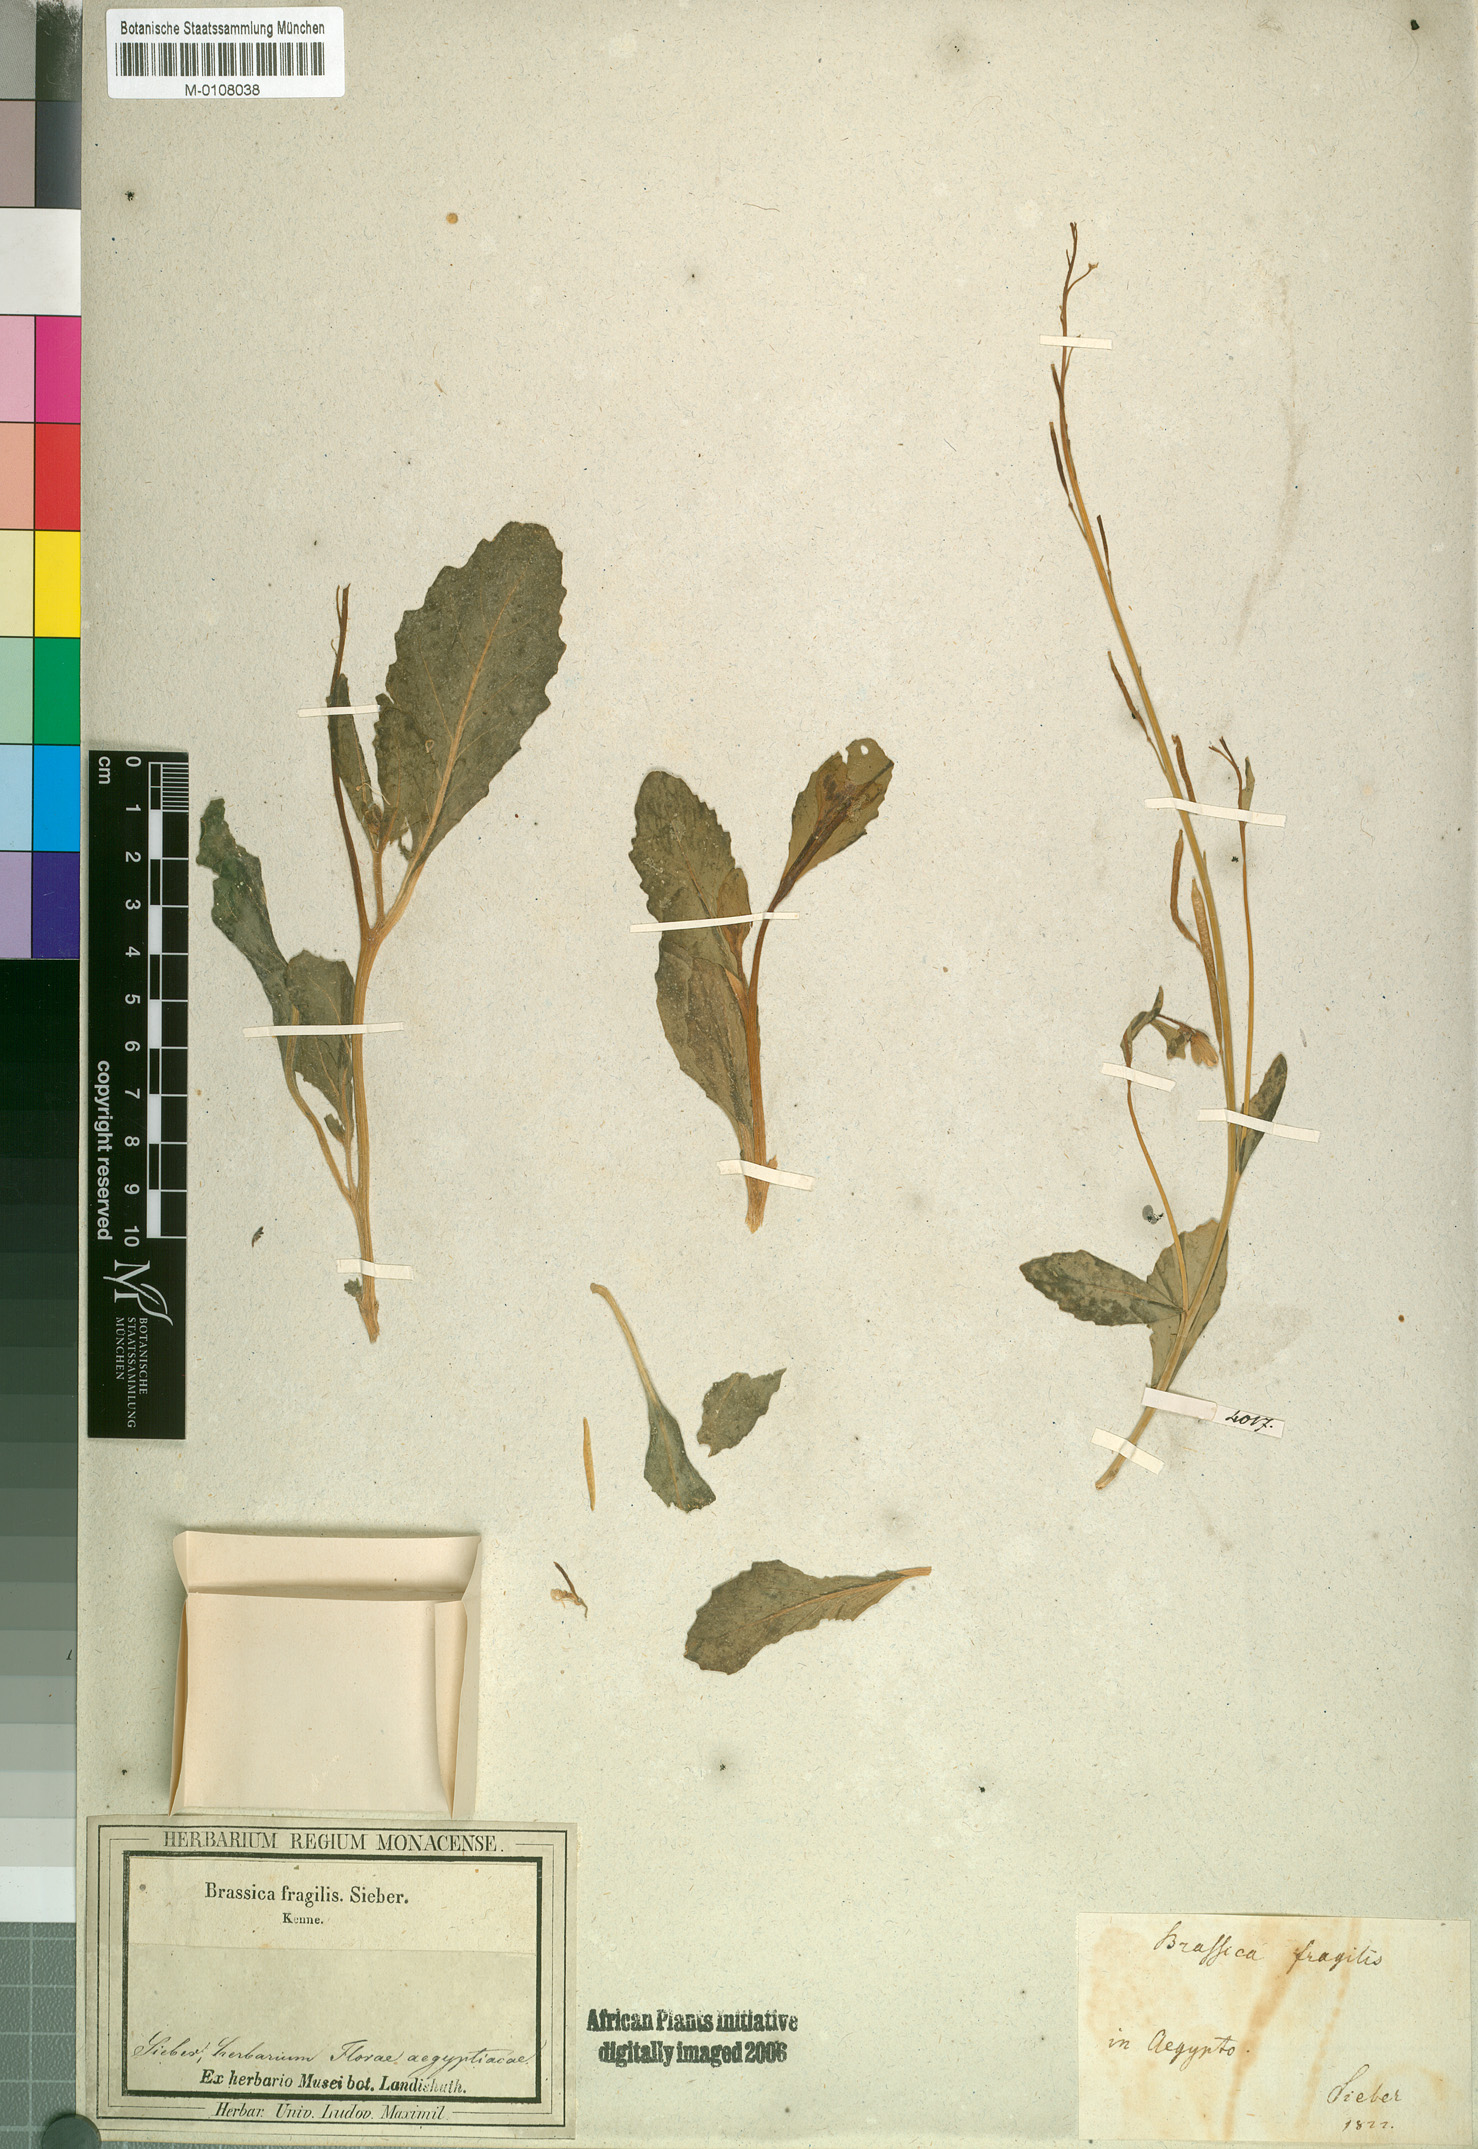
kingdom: Plantae
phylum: Tracheophyta
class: Magnoliopsida
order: Brassicales
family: Brassicaceae
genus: Diplotaxis
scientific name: Diplotaxis acris
